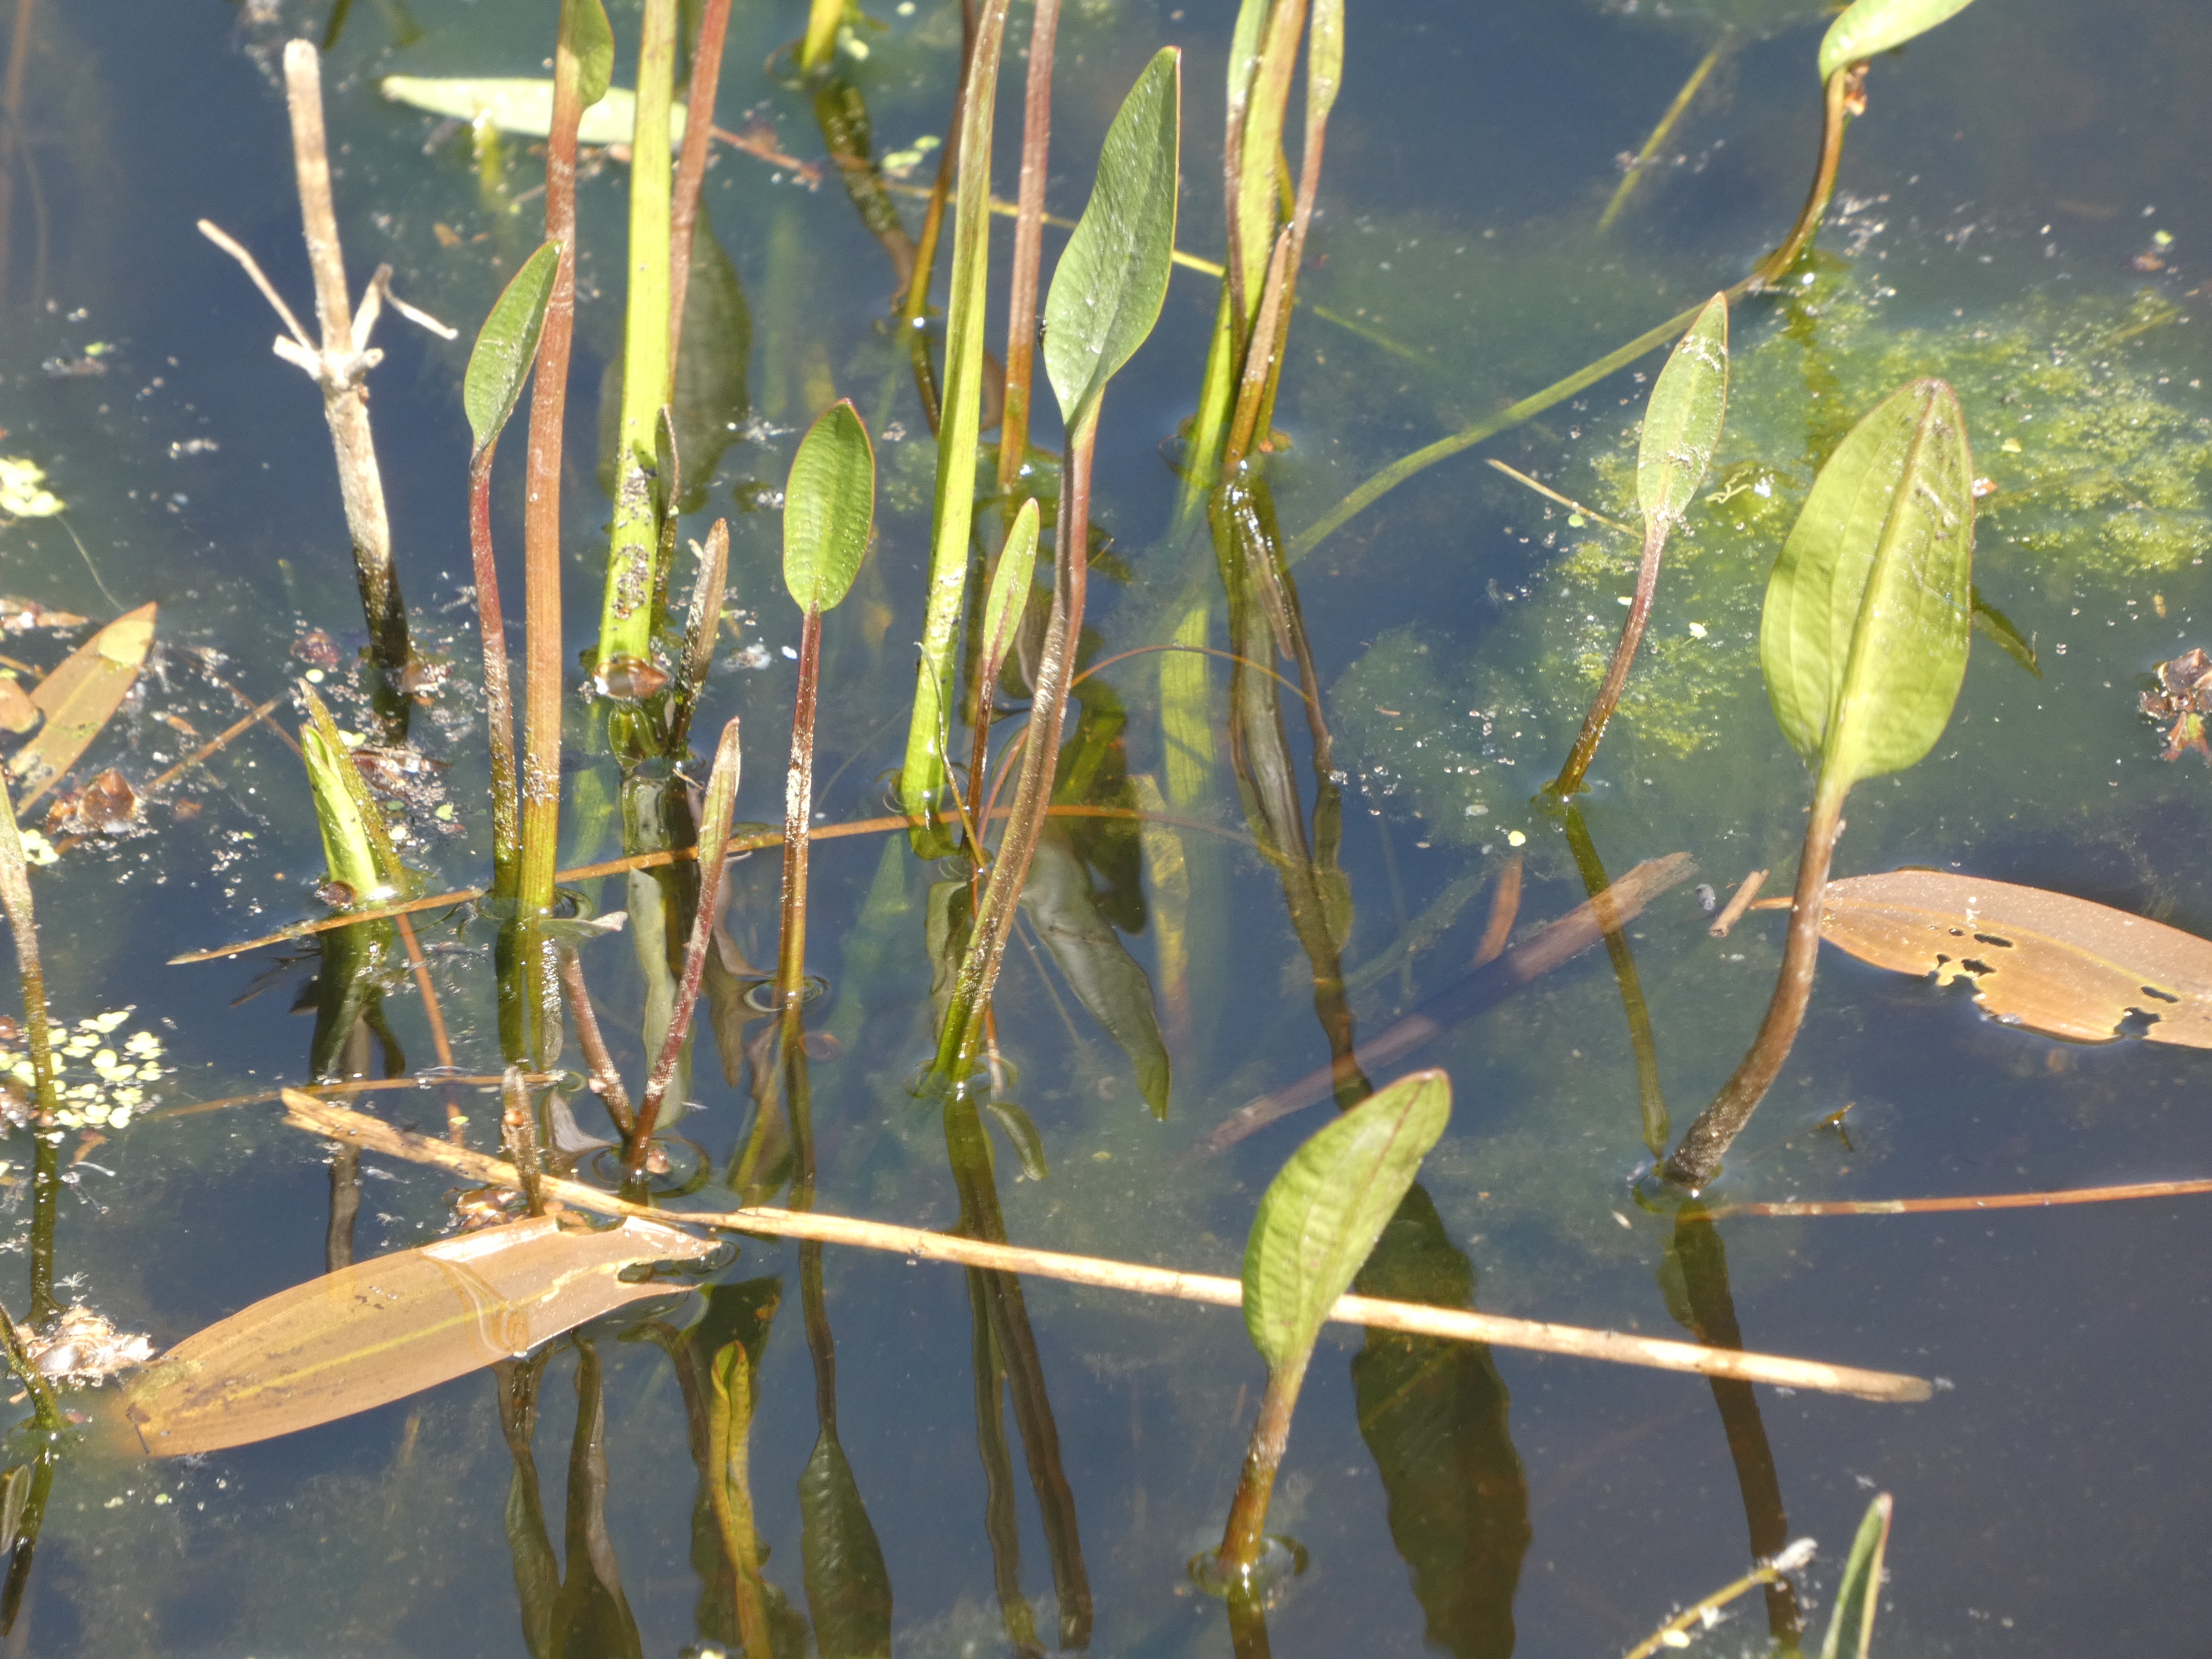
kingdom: Plantae
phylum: Tracheophyta
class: Liliopsida
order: Alismatales
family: Alismataceae
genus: Alisma
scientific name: Alisma plantago-aquatica
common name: Vejbred-skeblad
